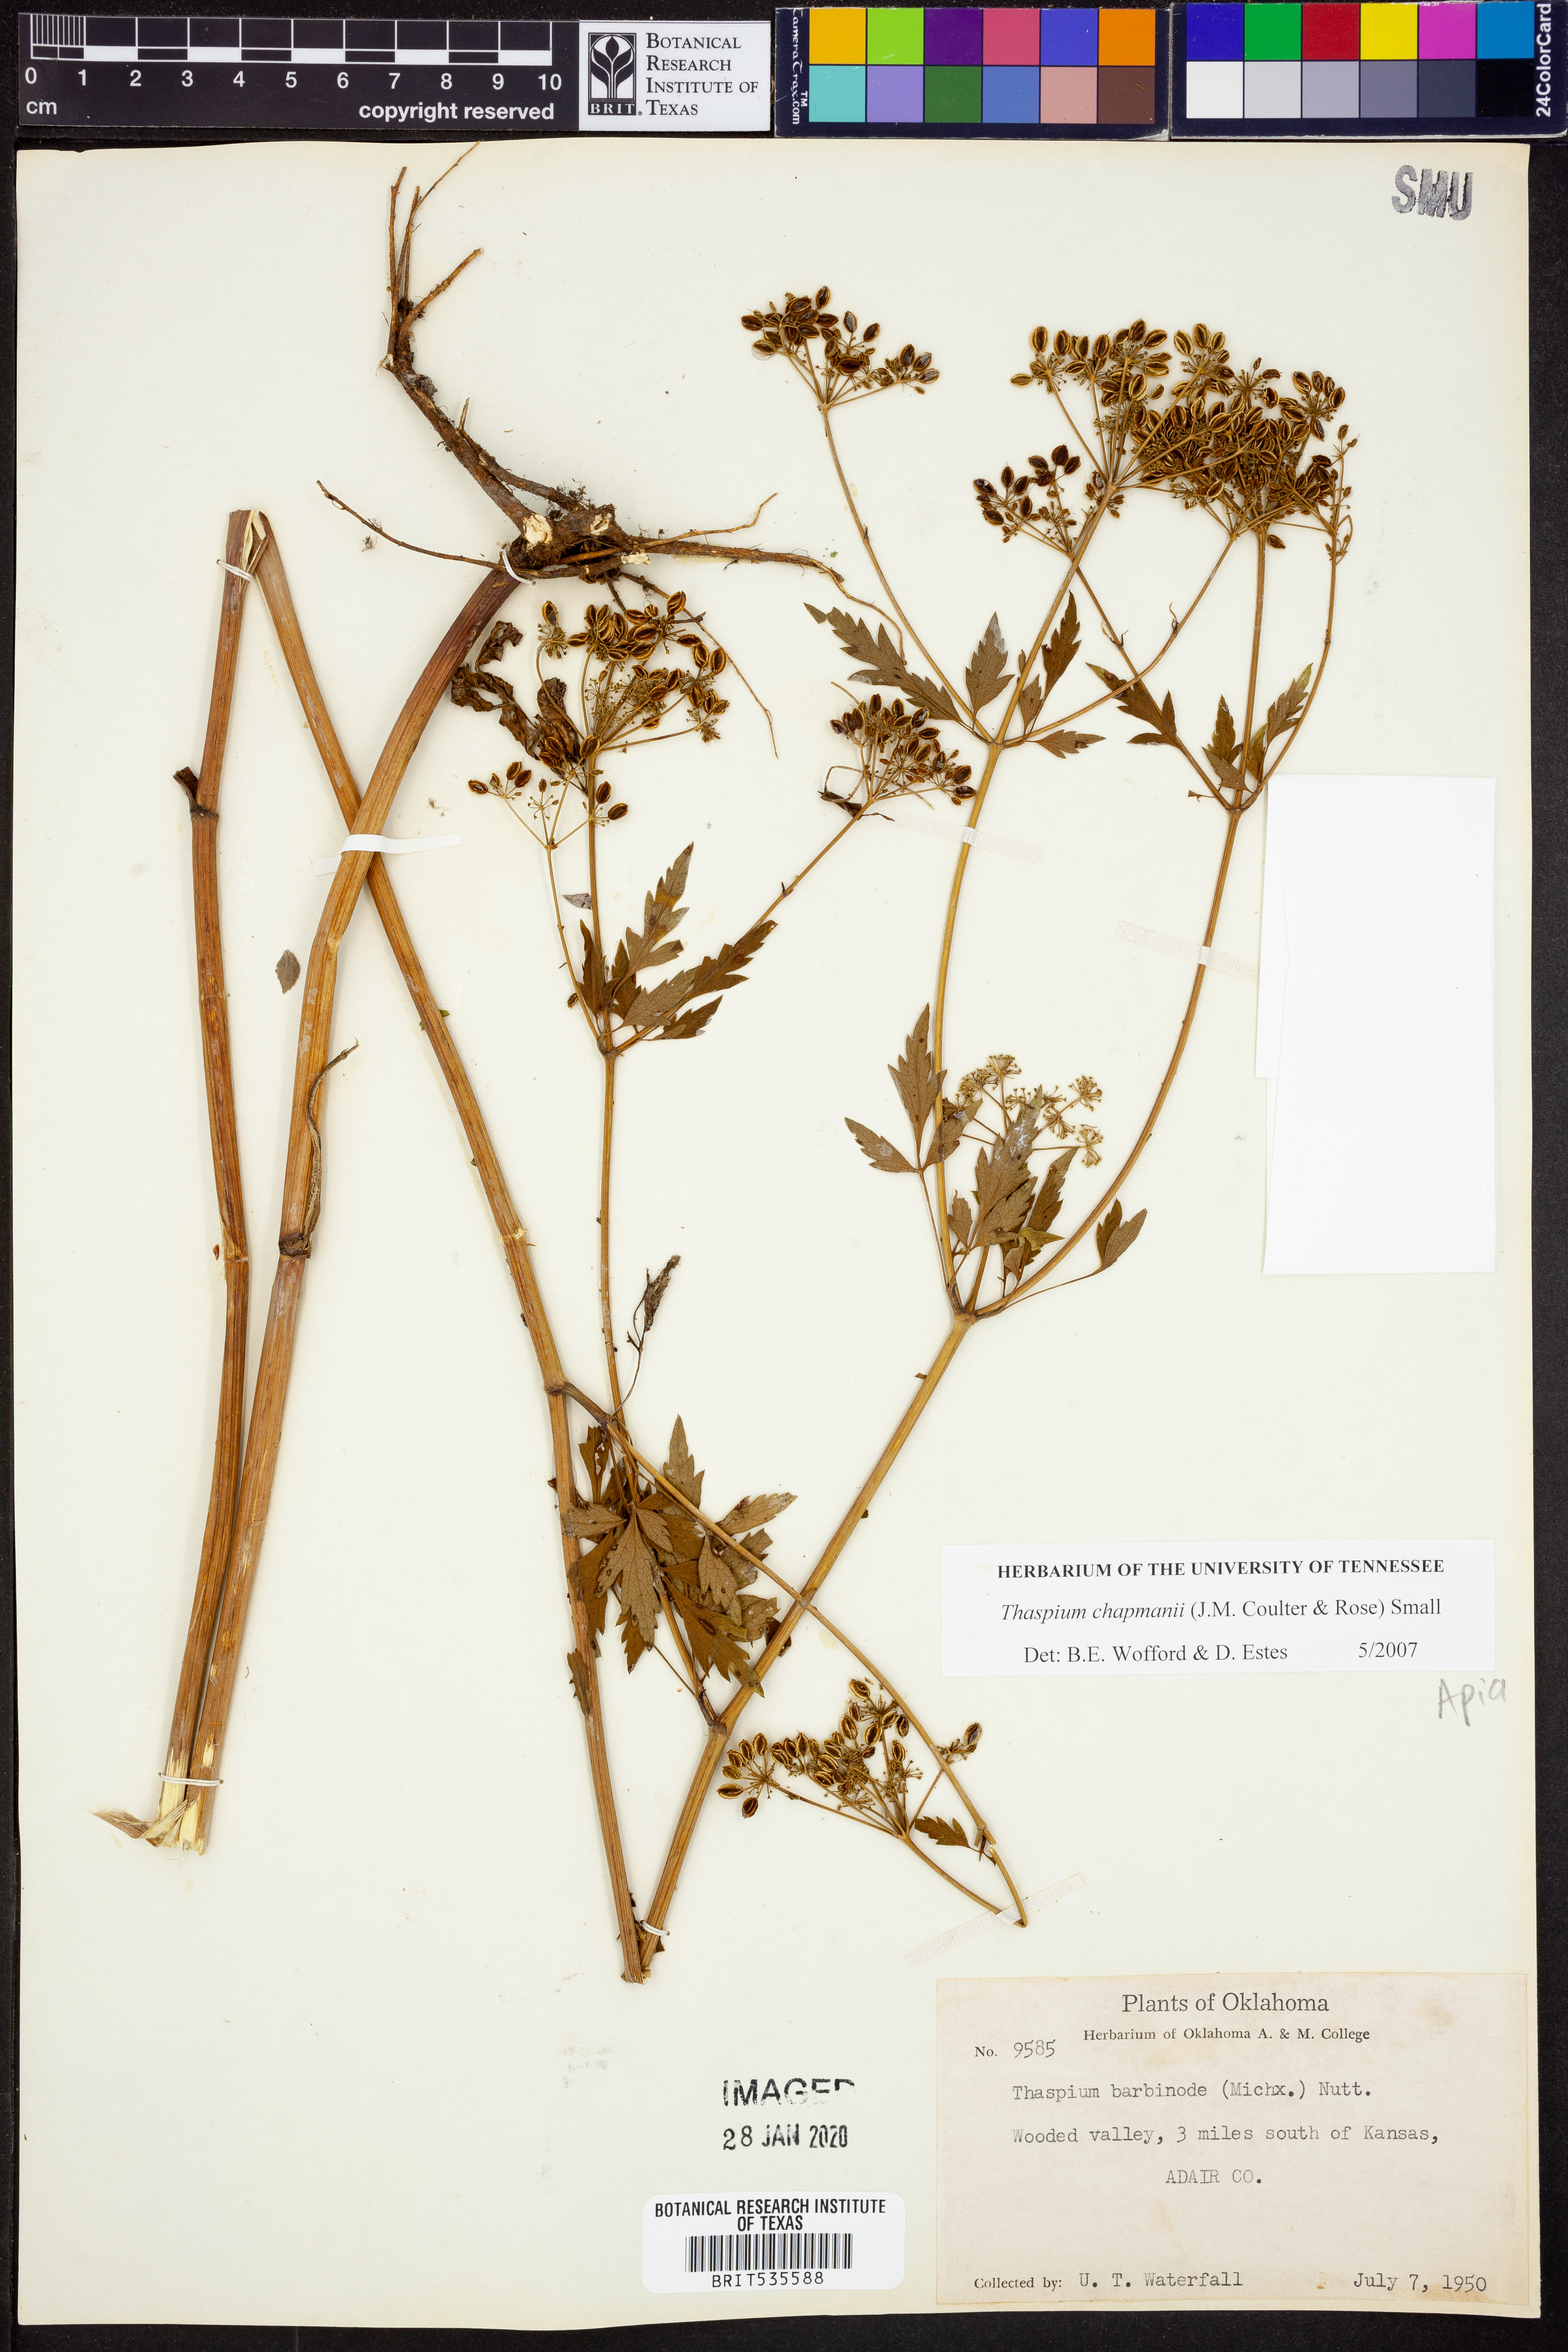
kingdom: Plantae
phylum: Tracheophyta
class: Magnoliopsida
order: Apiales
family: Apiaceae
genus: Thaspium
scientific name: Thaspium barbinode
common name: Bearded meadow-parsnip
